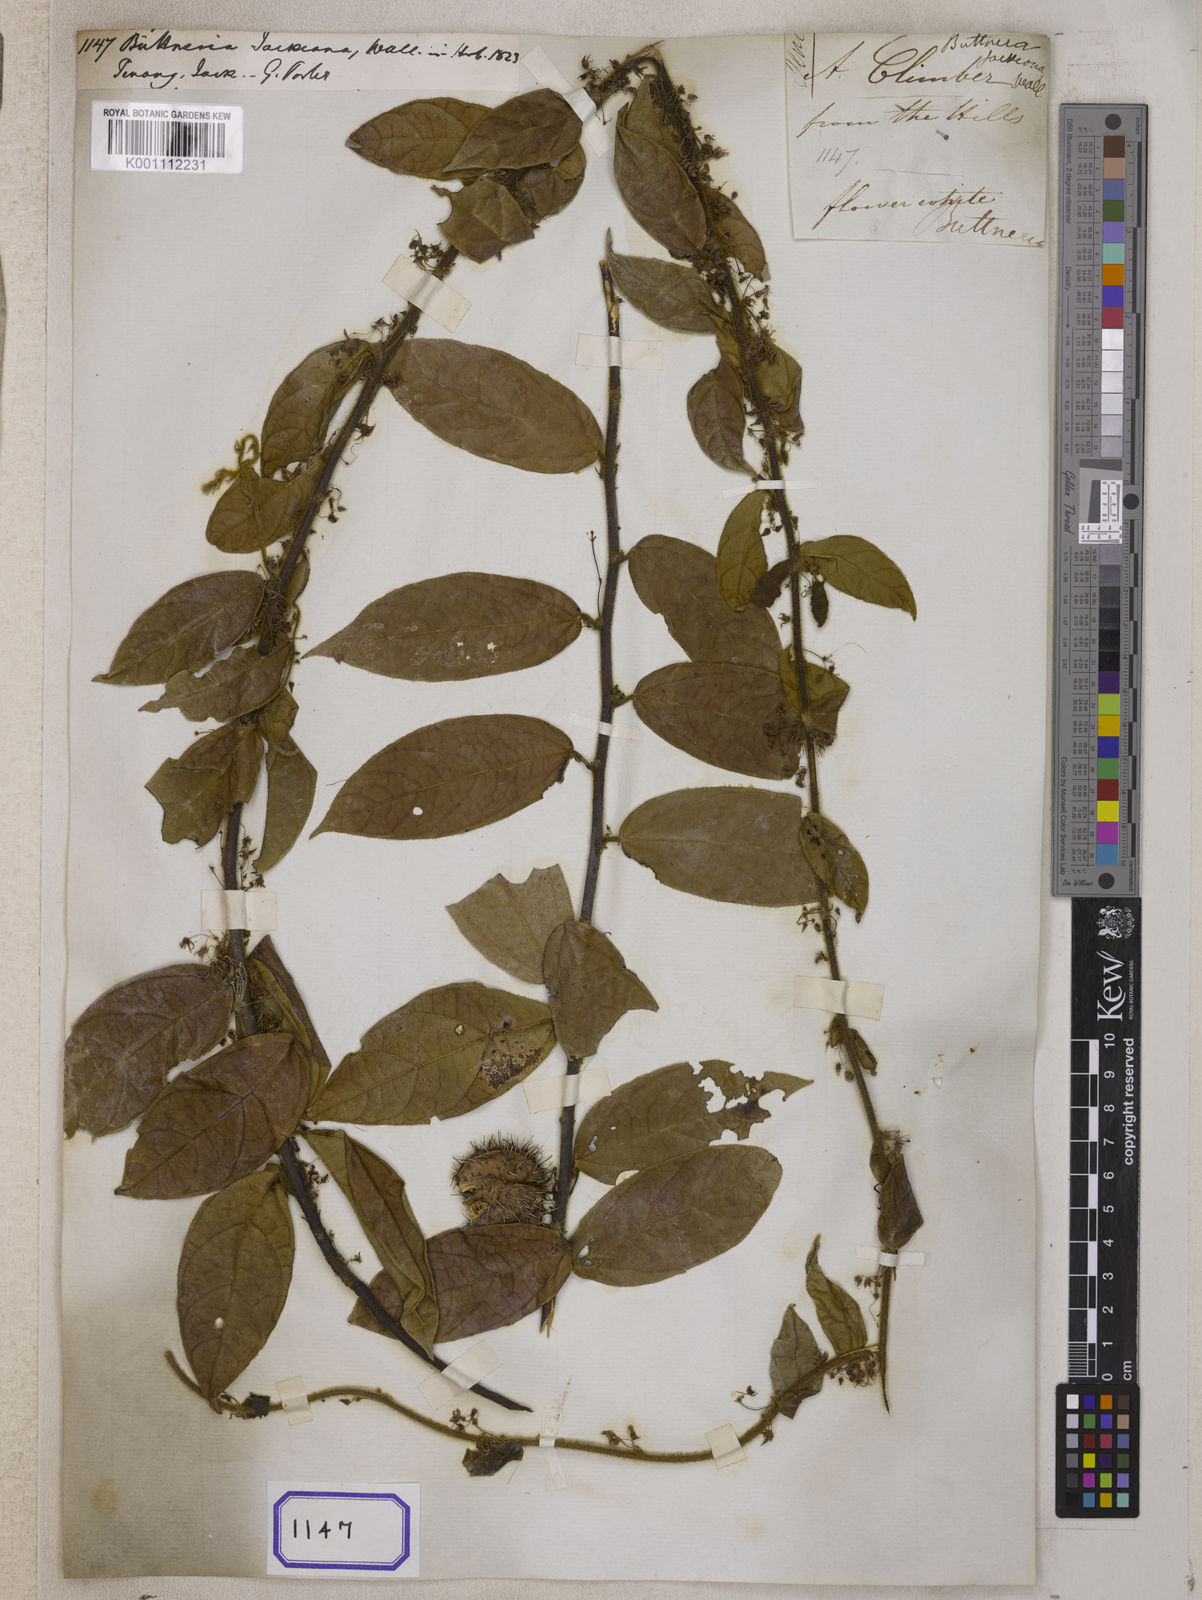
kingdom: Plantae
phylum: Tracheophyta
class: Magnoliopsida
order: Malvales
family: Malvaceae
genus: Byttneria
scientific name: Byttneria jackiana
